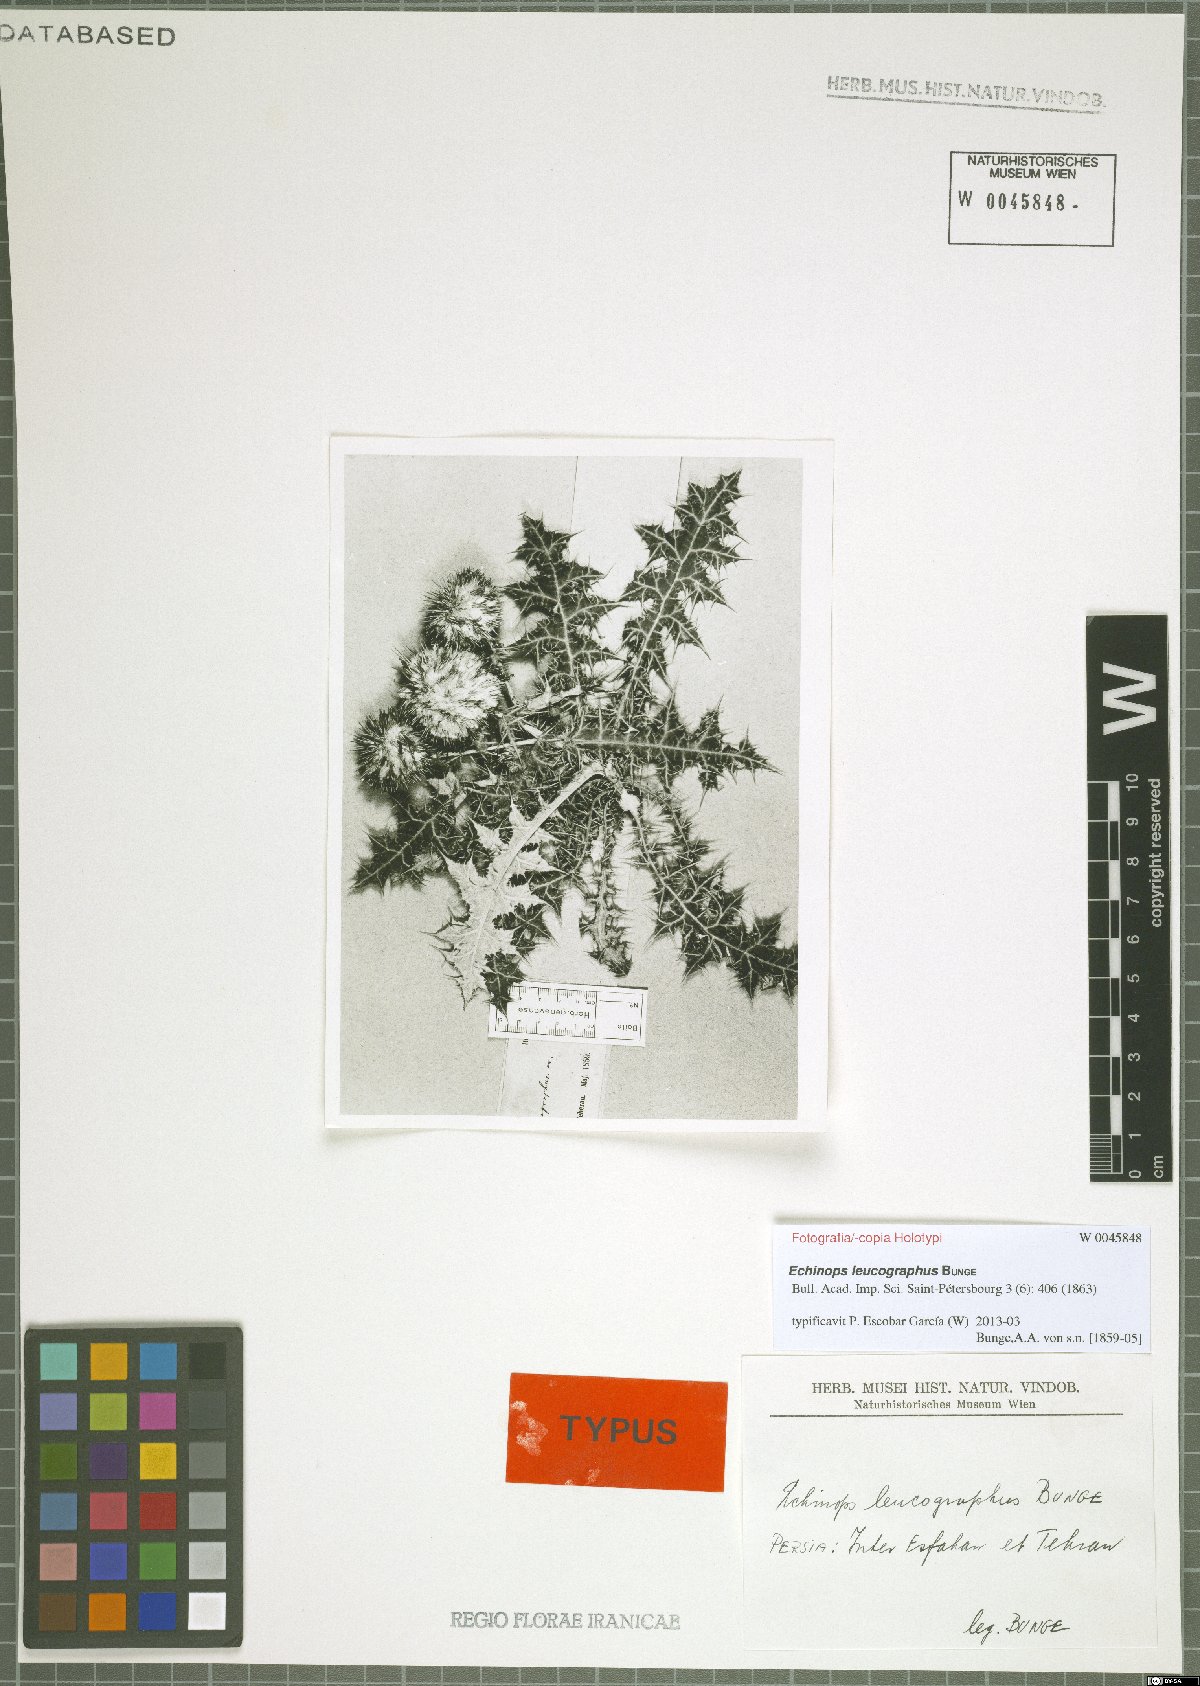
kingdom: Plantae
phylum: Tracheophyta
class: Magnoliopsida
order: Asterales
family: Asteraceae
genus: Echinops
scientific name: Echinops leucographus
